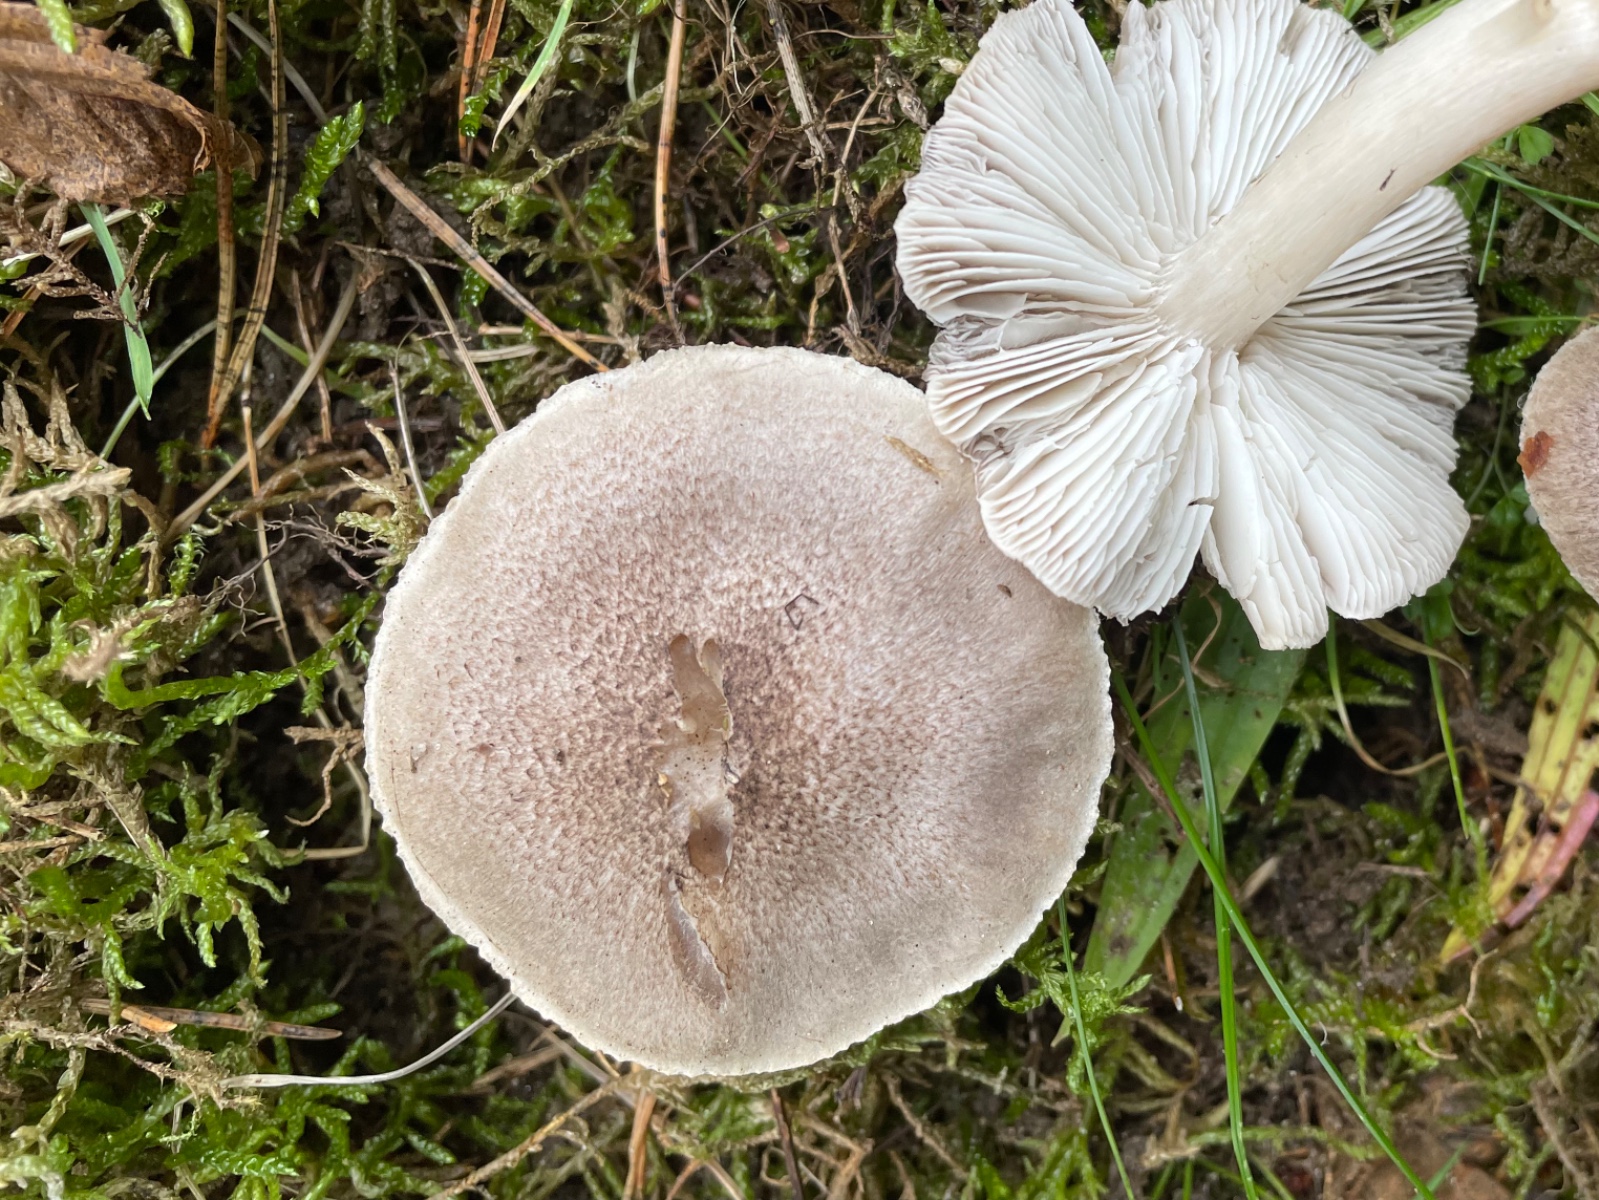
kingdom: Fungi
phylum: Basidiomycota
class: Agaricomycetes
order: Agaricales
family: Tricholomataceae
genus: Tricholoma
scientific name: Tricholoma scalpturatum
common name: gulplettet ridderhat
